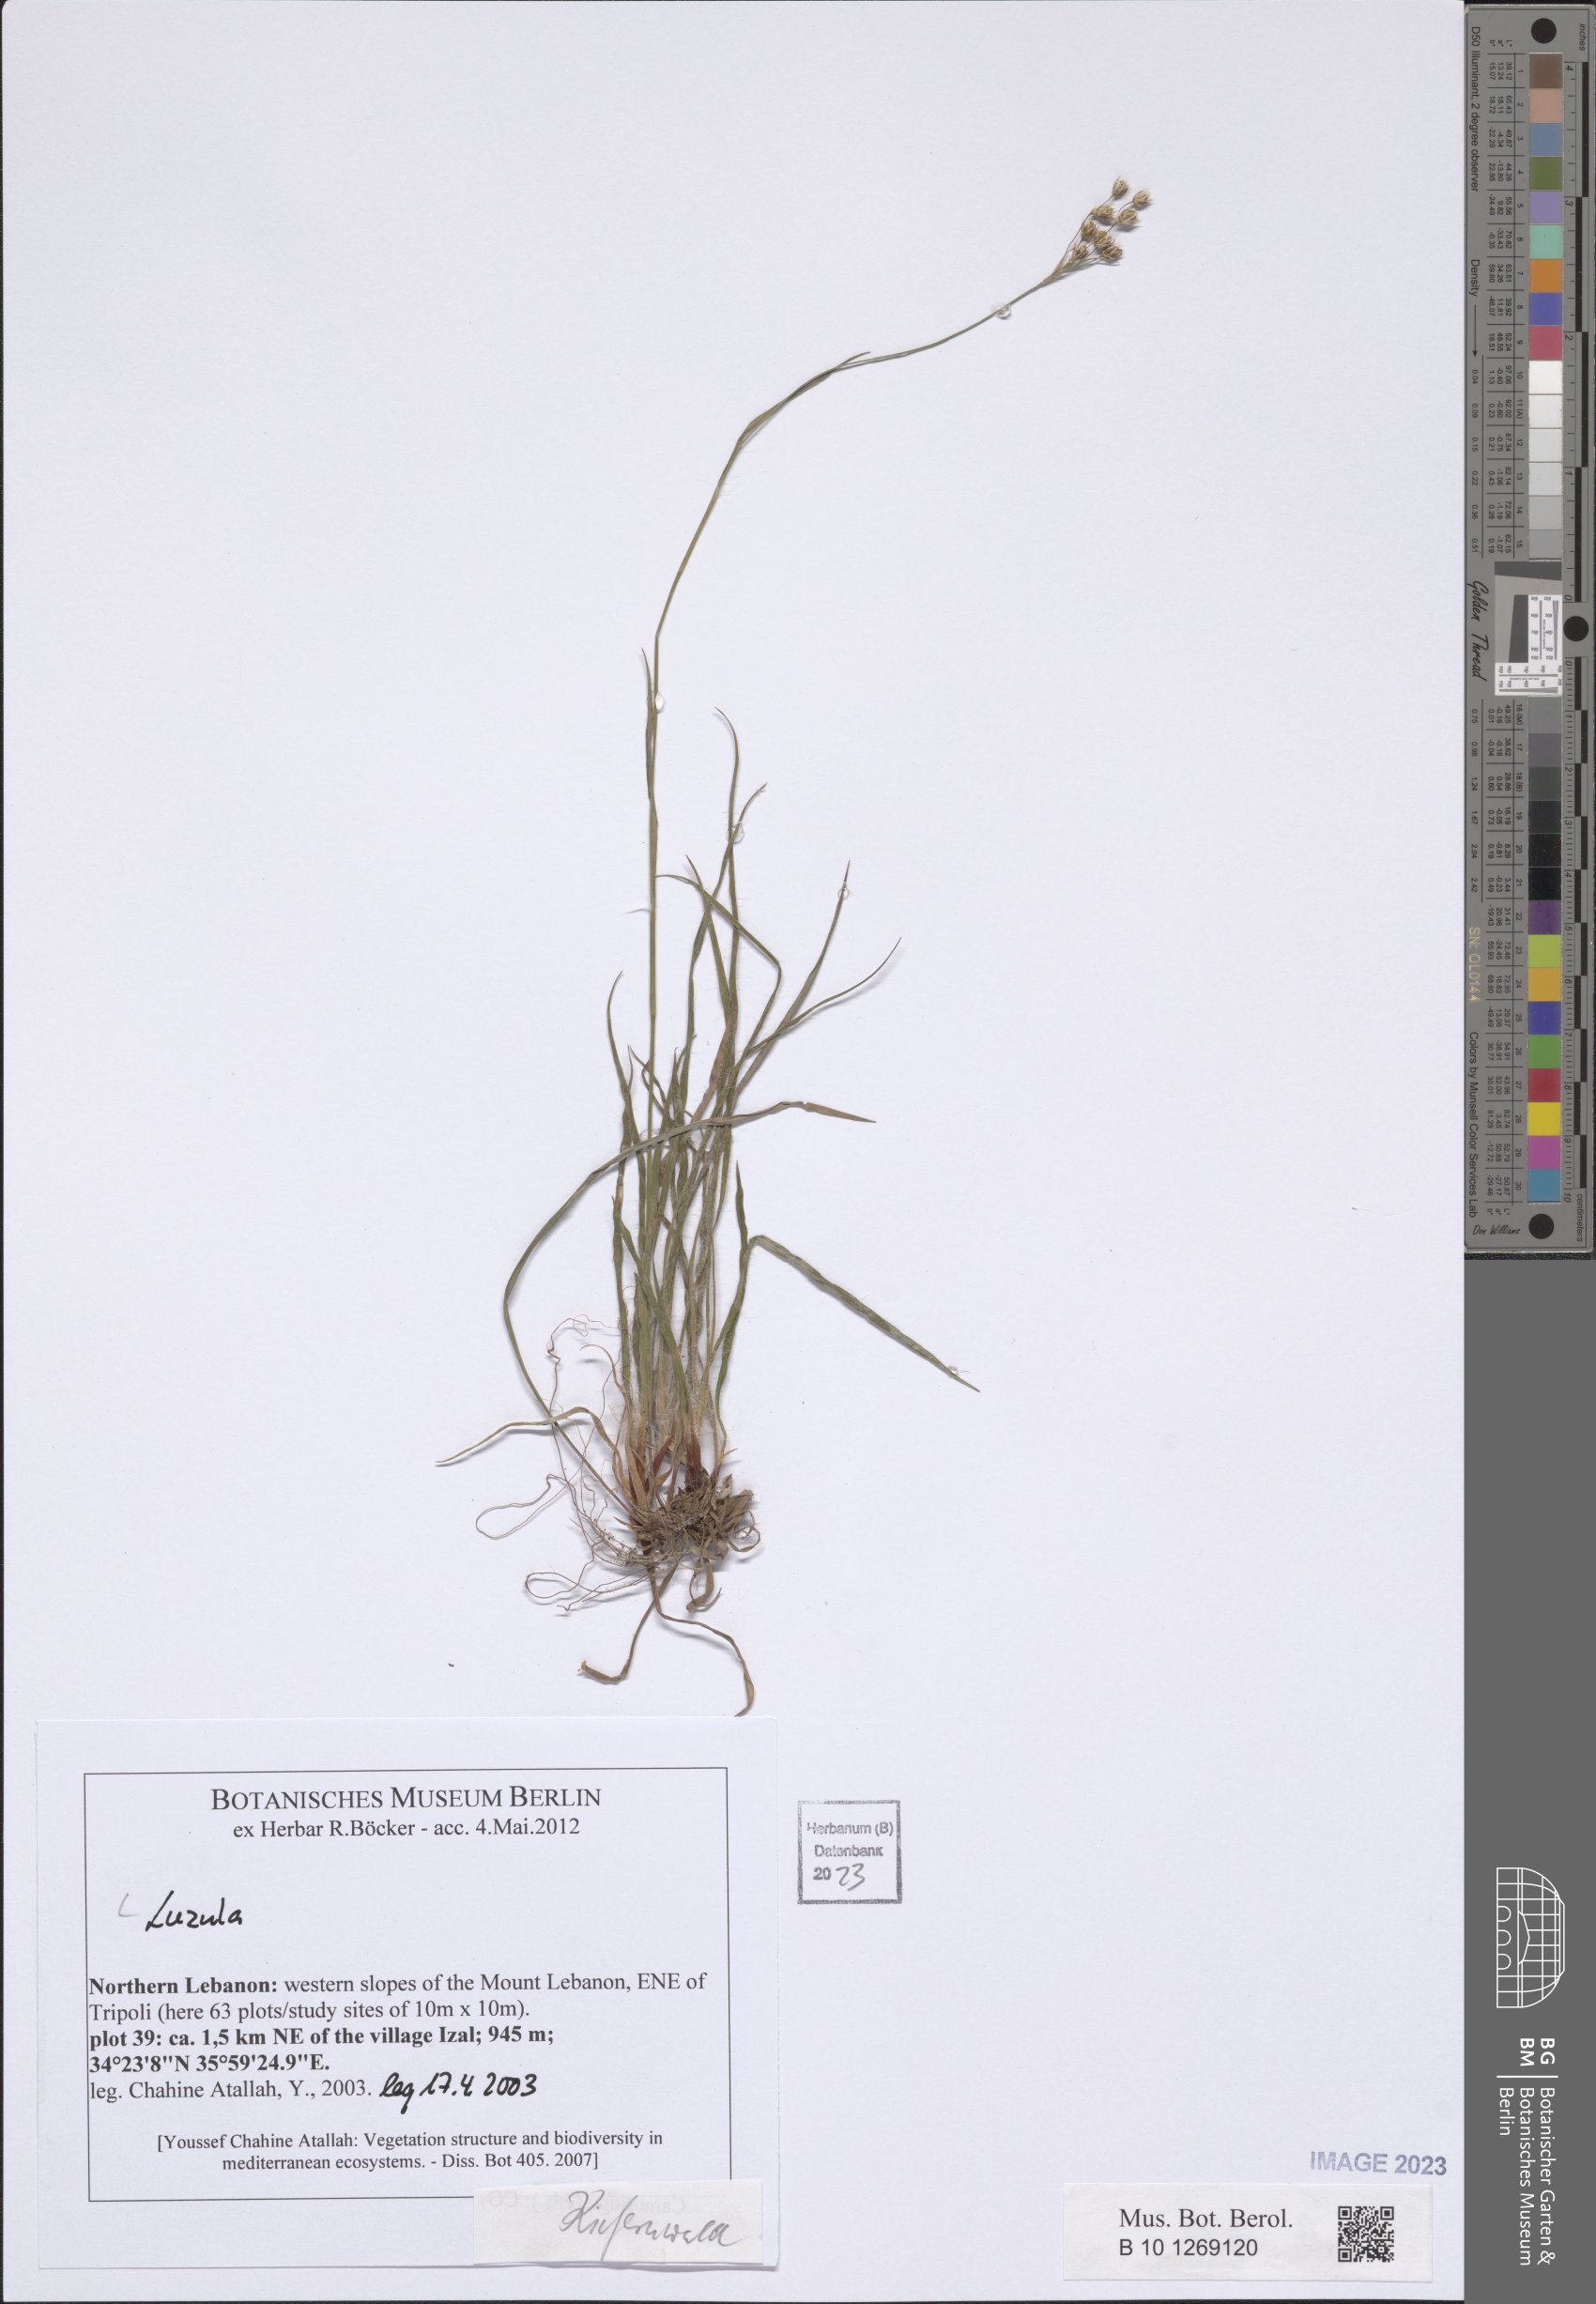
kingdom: Plantae
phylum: Tracheophyta
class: Liliopsida
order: Poales
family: Juncaceae
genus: Luzula
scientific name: Luzula
